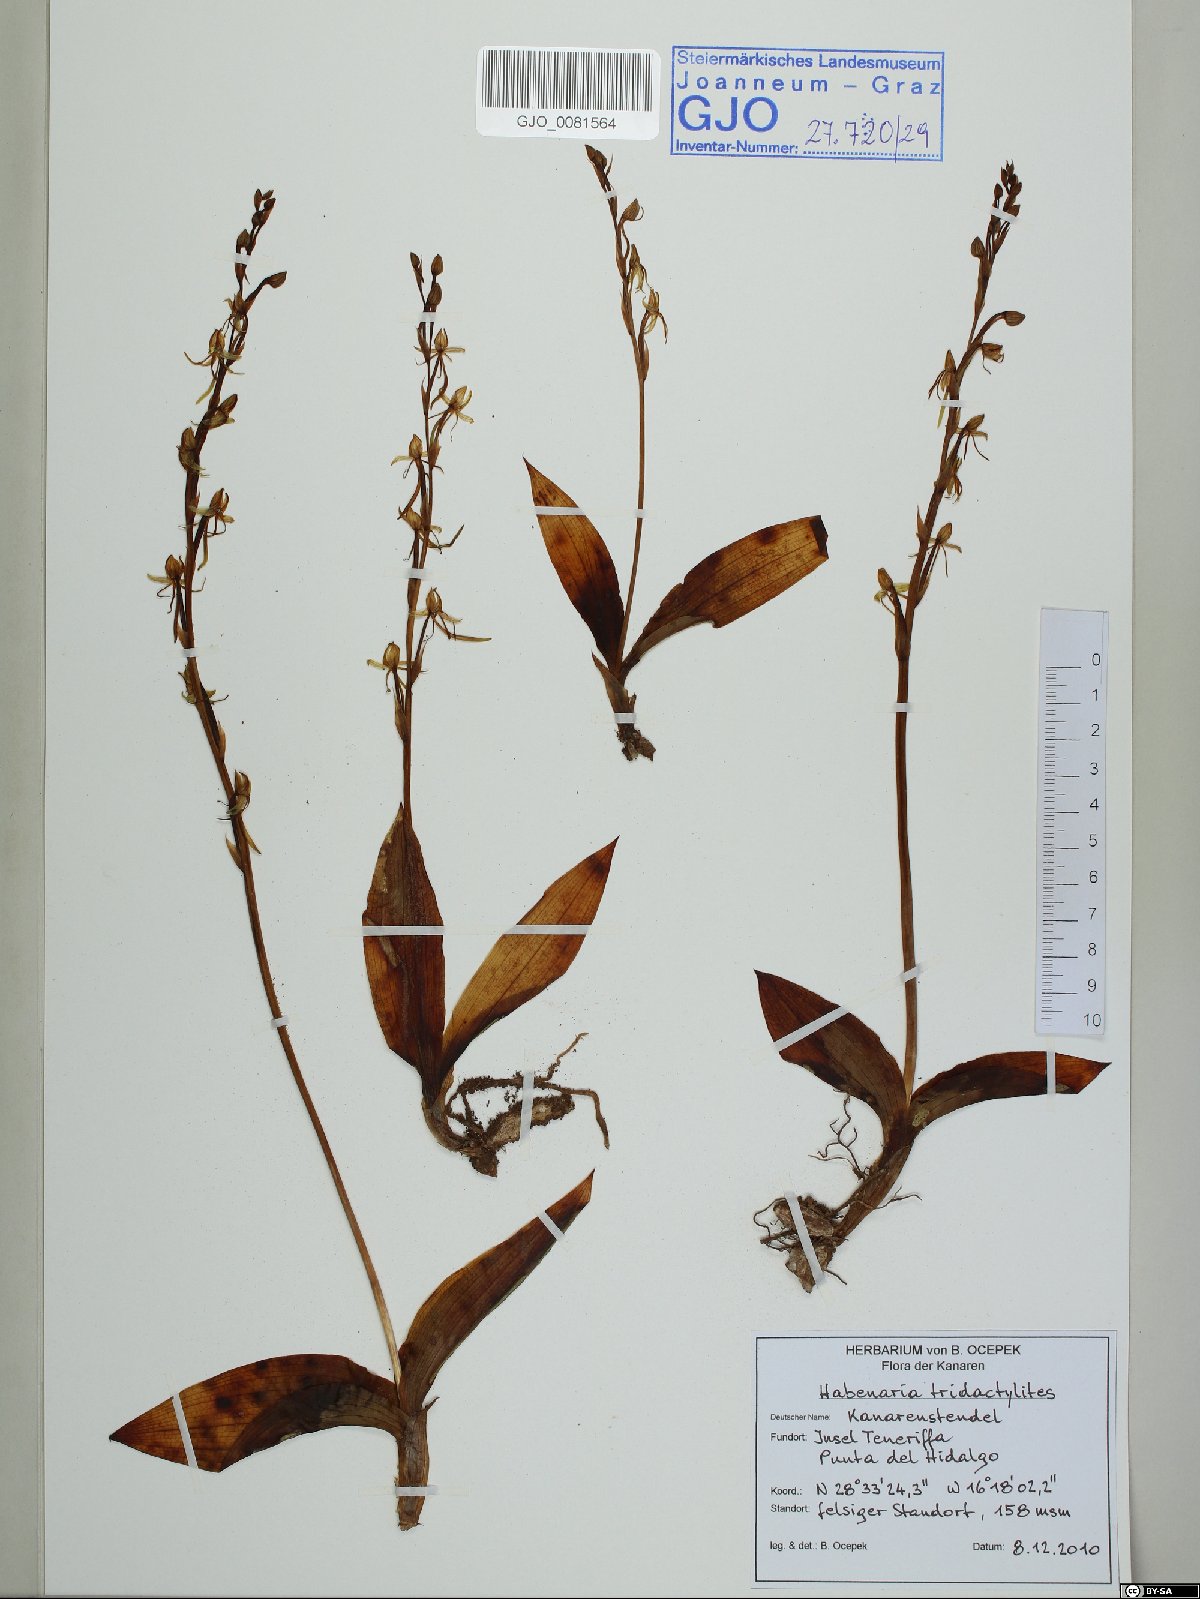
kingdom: Plantae
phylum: Tracheophyta
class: Liliopsida
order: Asparagales
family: Orchidaceae
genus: Habenaria
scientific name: Habenaria tridactylites
